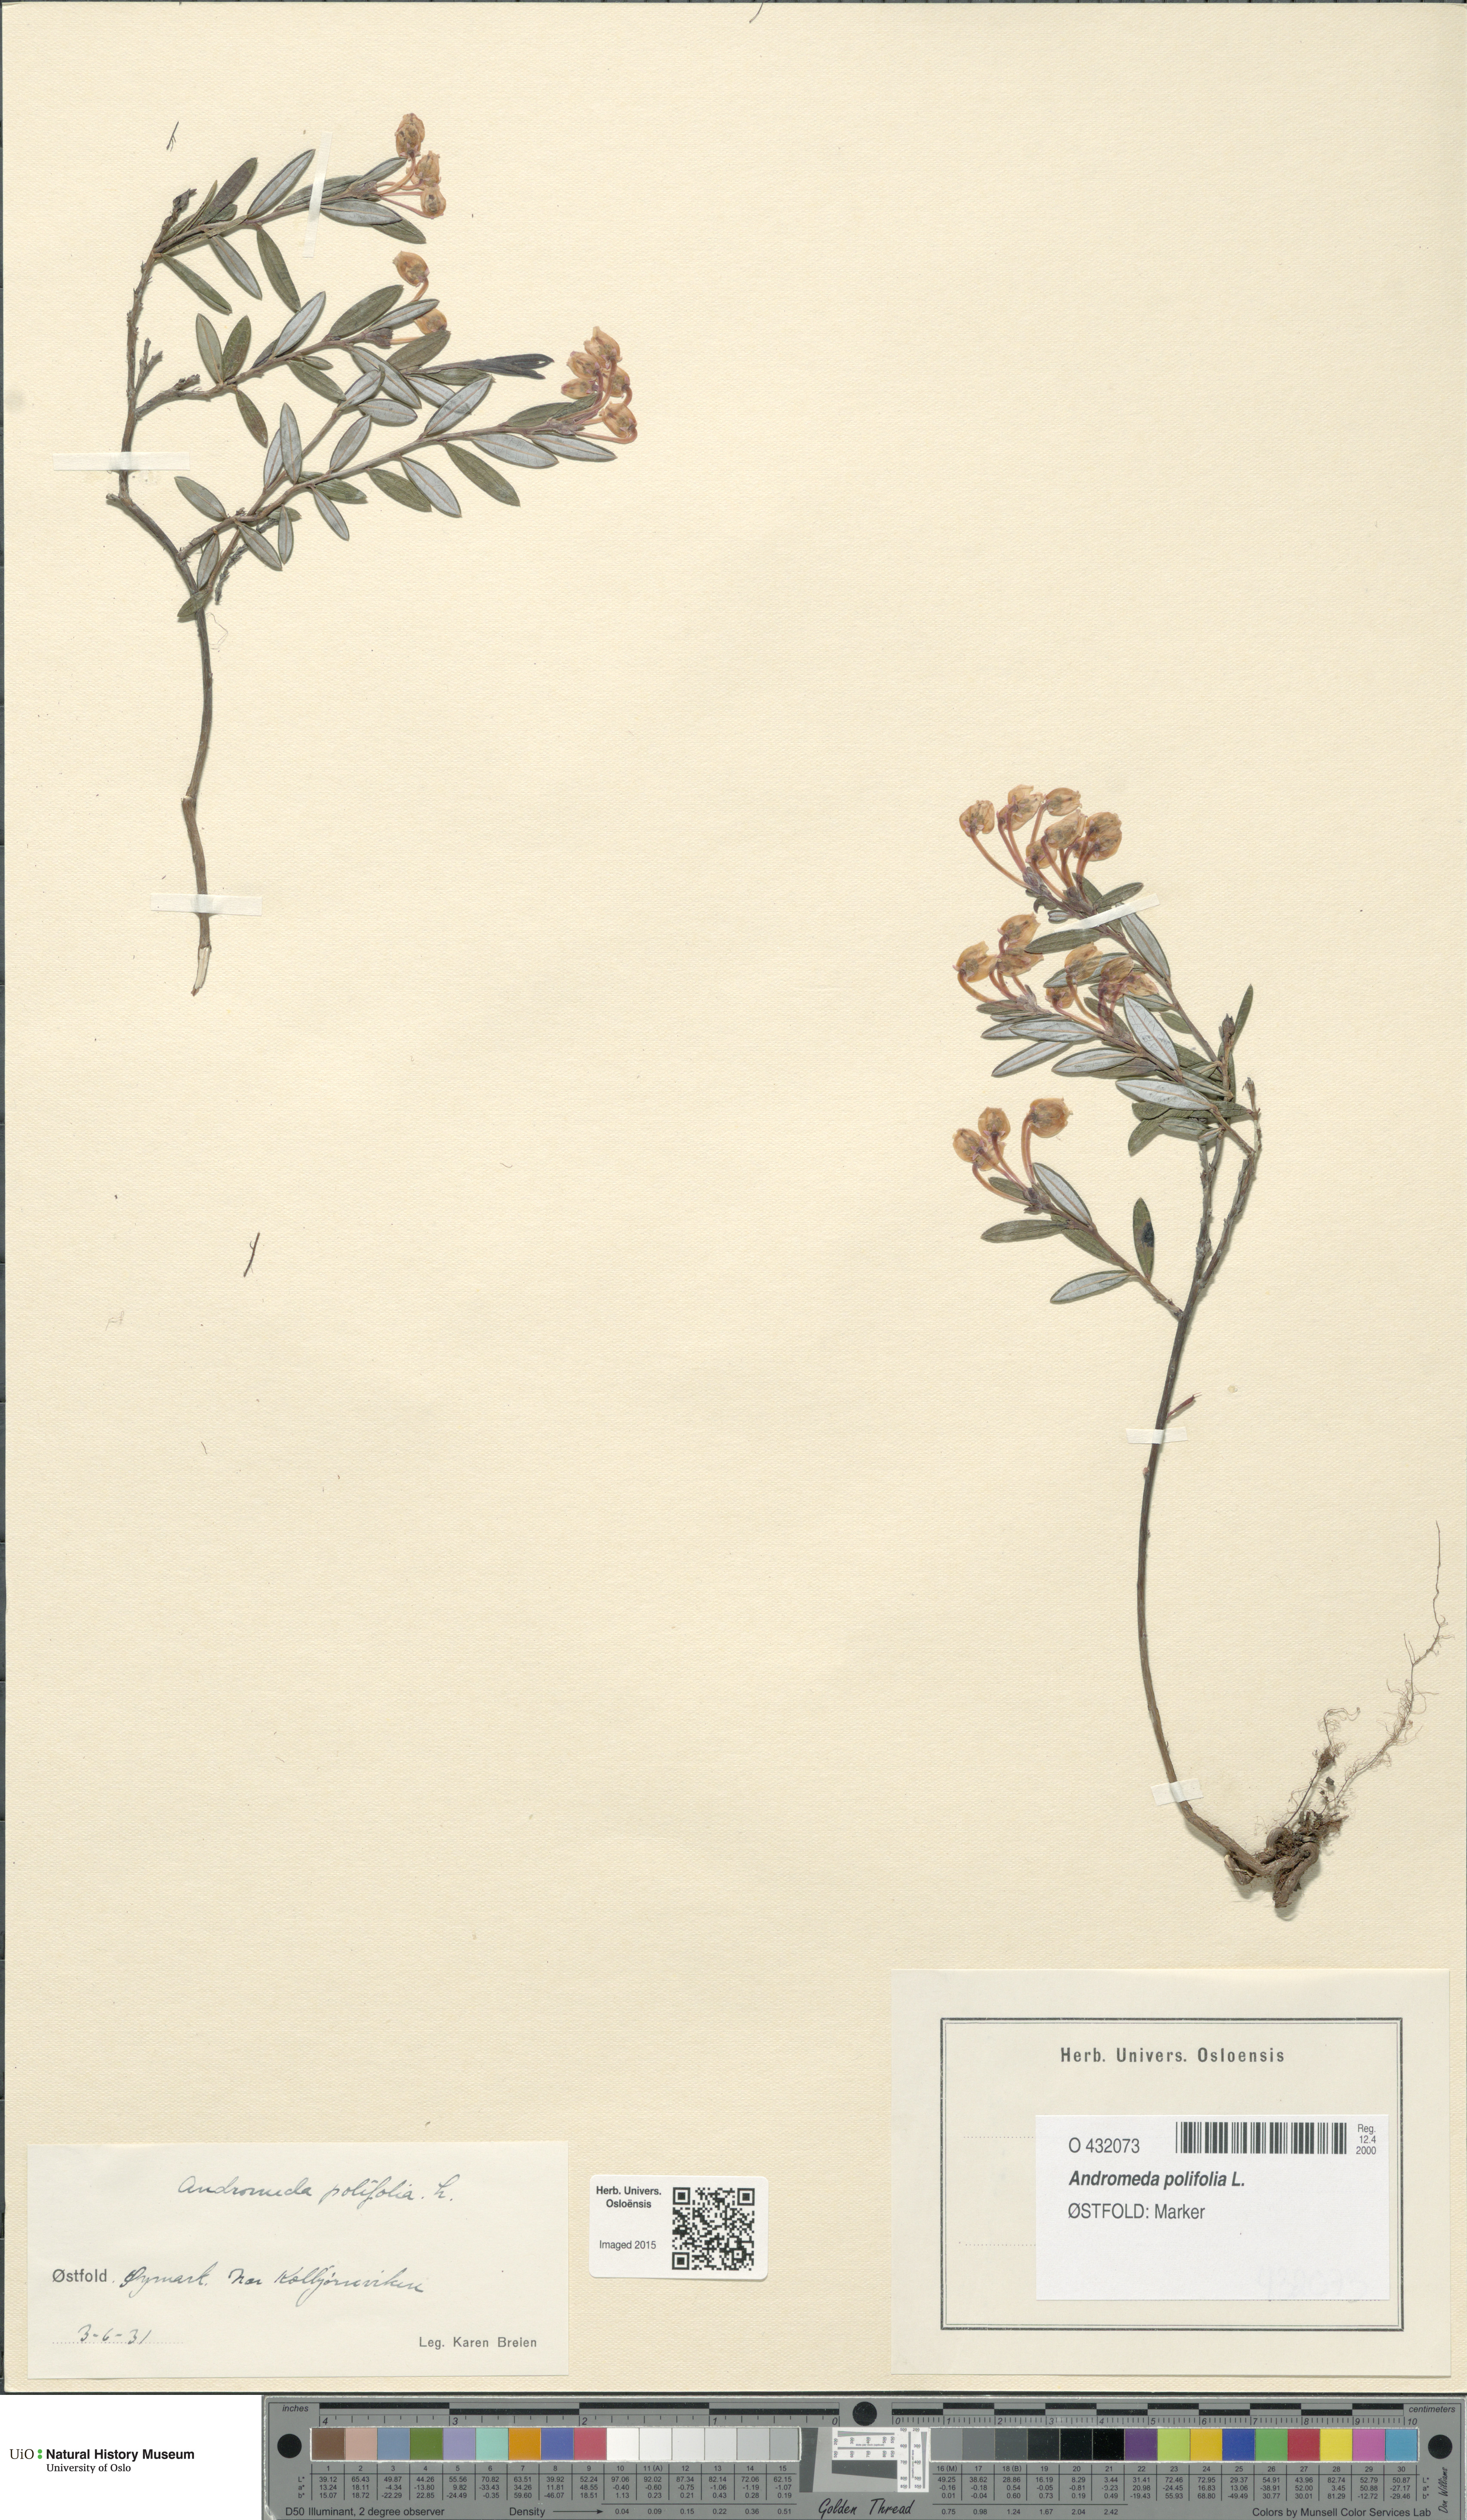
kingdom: Plantae
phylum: Tracheophyta
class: Magnoliopsida
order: Ericales
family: Ericaceae
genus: Andromeda
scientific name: Andromeda polifolia
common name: Bog-rosemary
